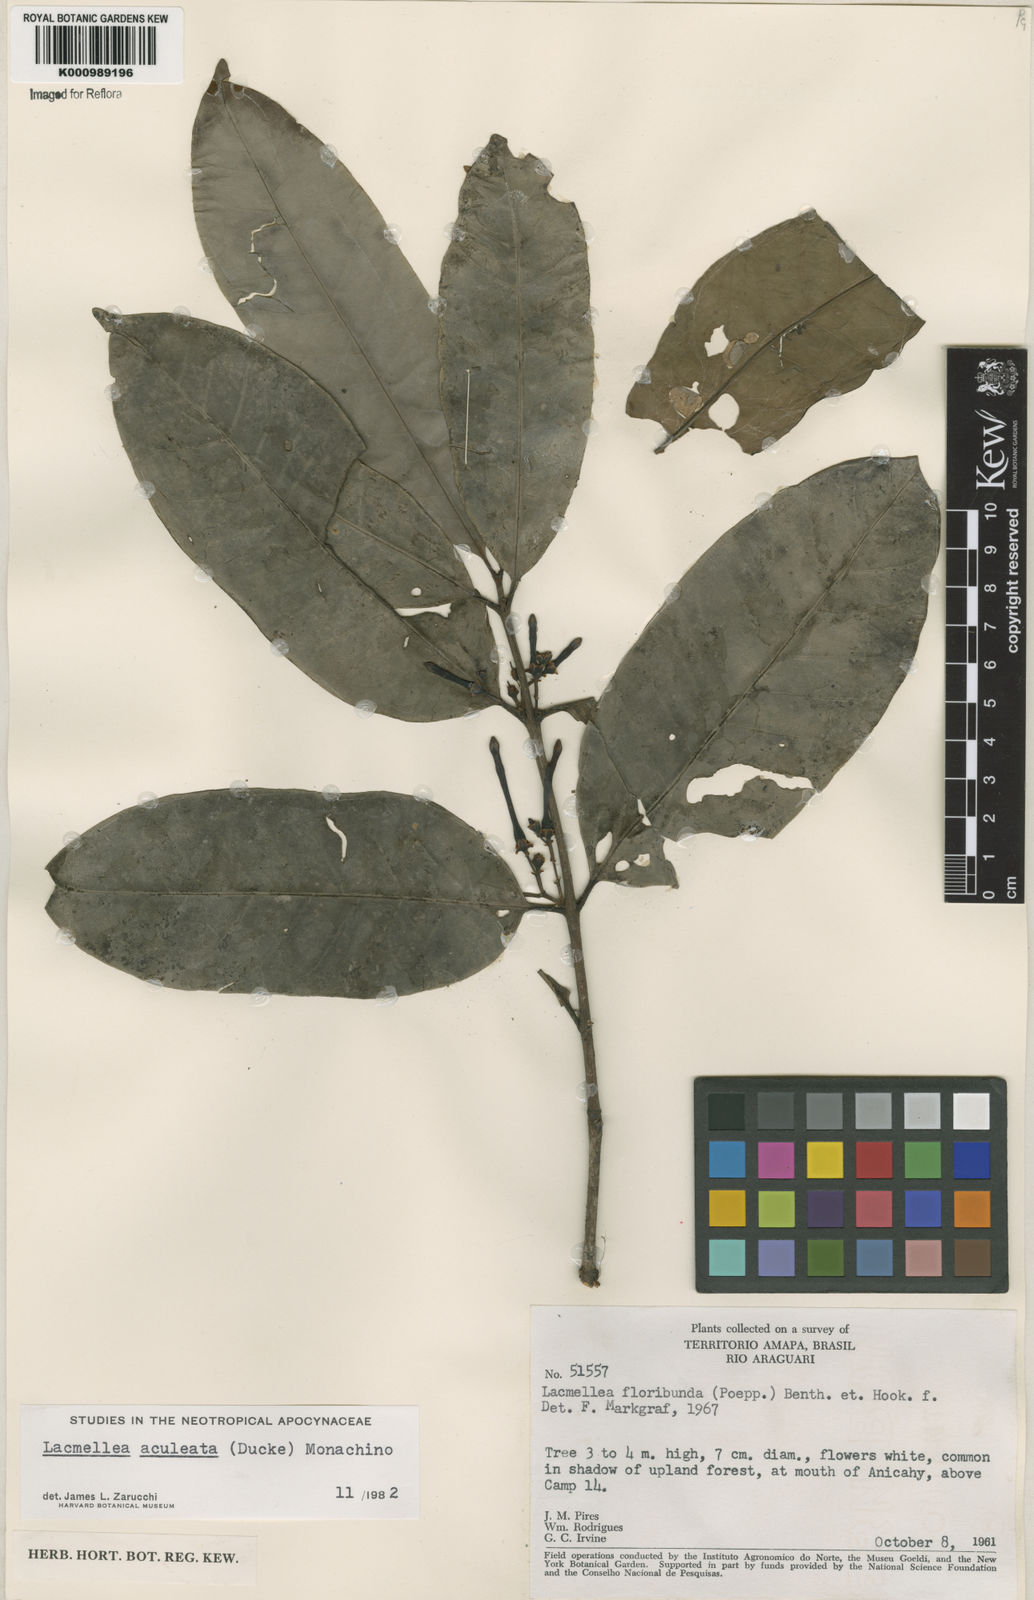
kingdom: Plantae
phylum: Tracheophyta
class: Magnoliopsida
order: Gentianales
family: Apocynaceae
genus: Lacmellea
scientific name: Lacmellea floribunda
